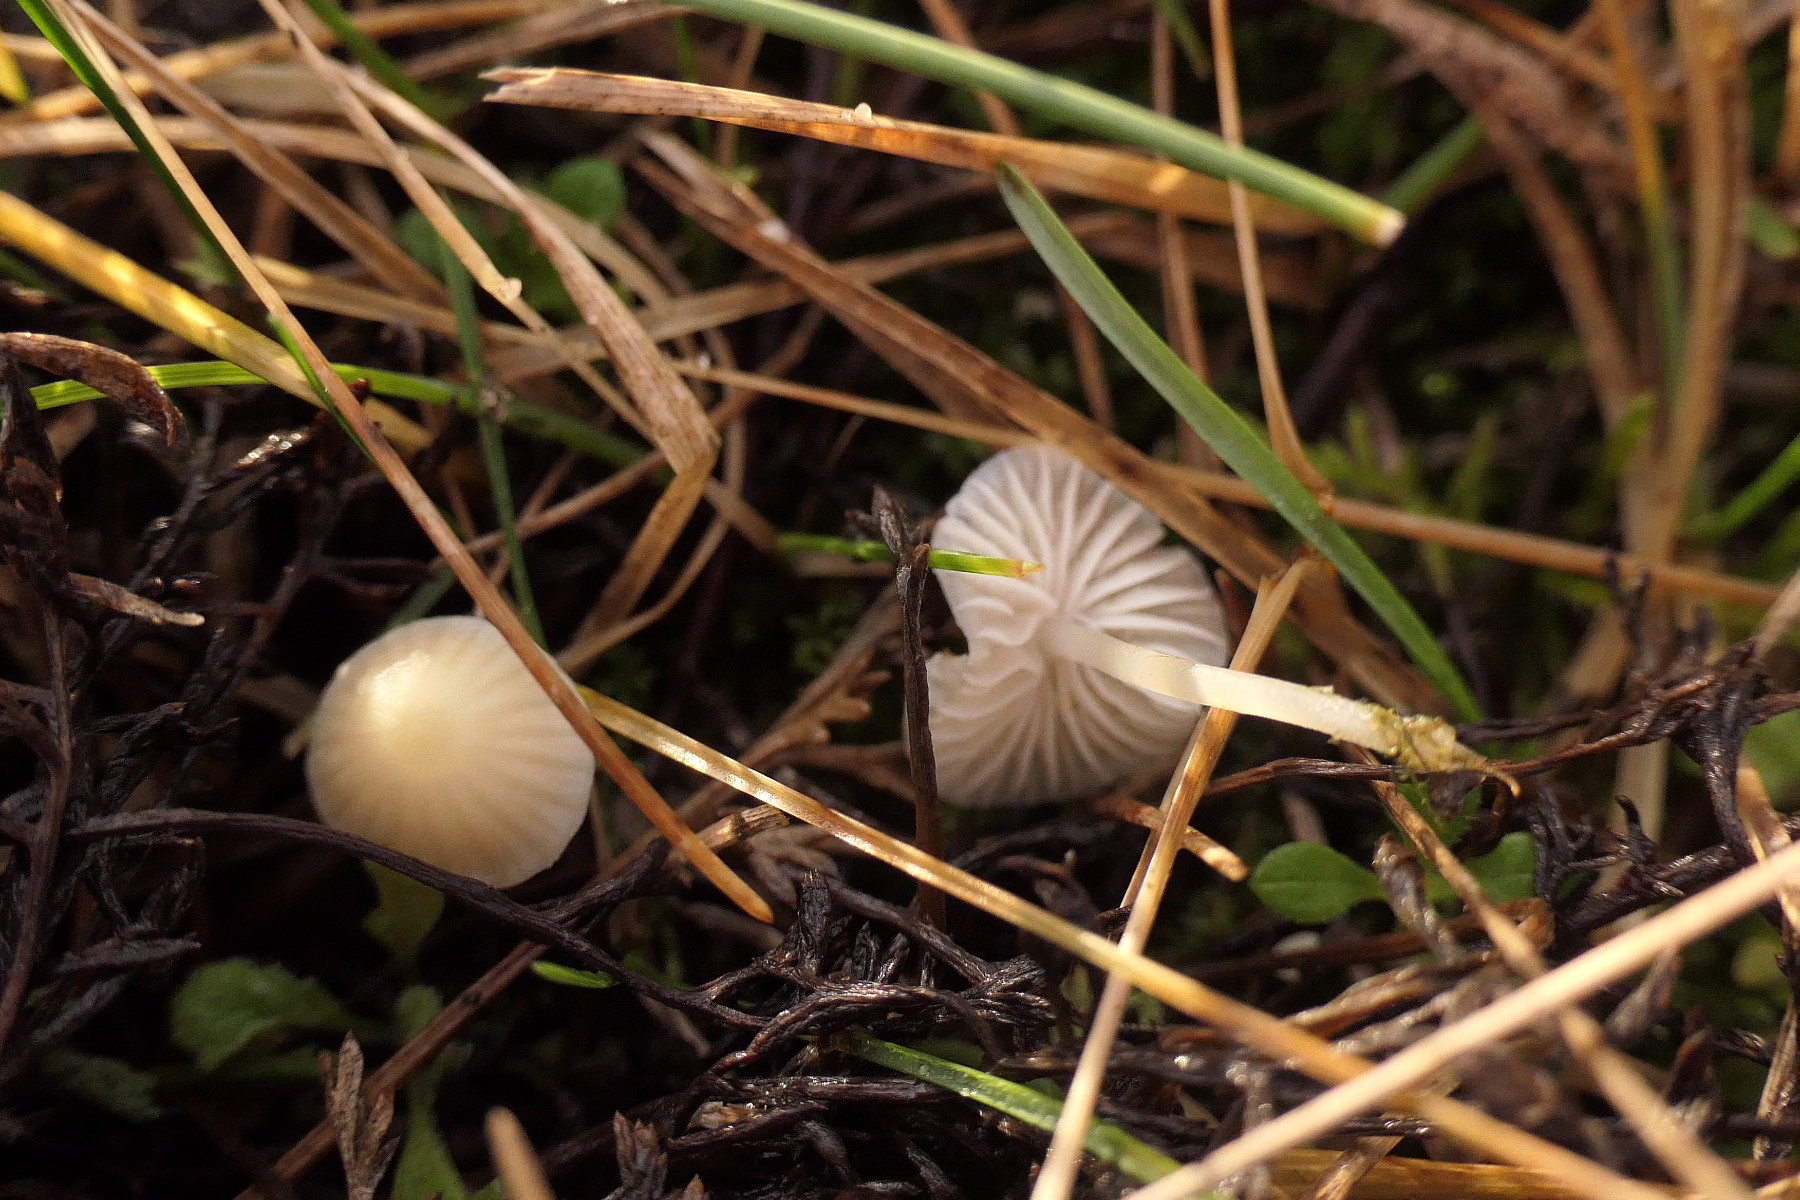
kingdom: Fungi
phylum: Basidiomycota
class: Agaricomycetes
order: Agaricales
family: Mycenaceae
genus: Atheniella
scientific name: Atheniella flavoalba
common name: gulhvid huesvamp
